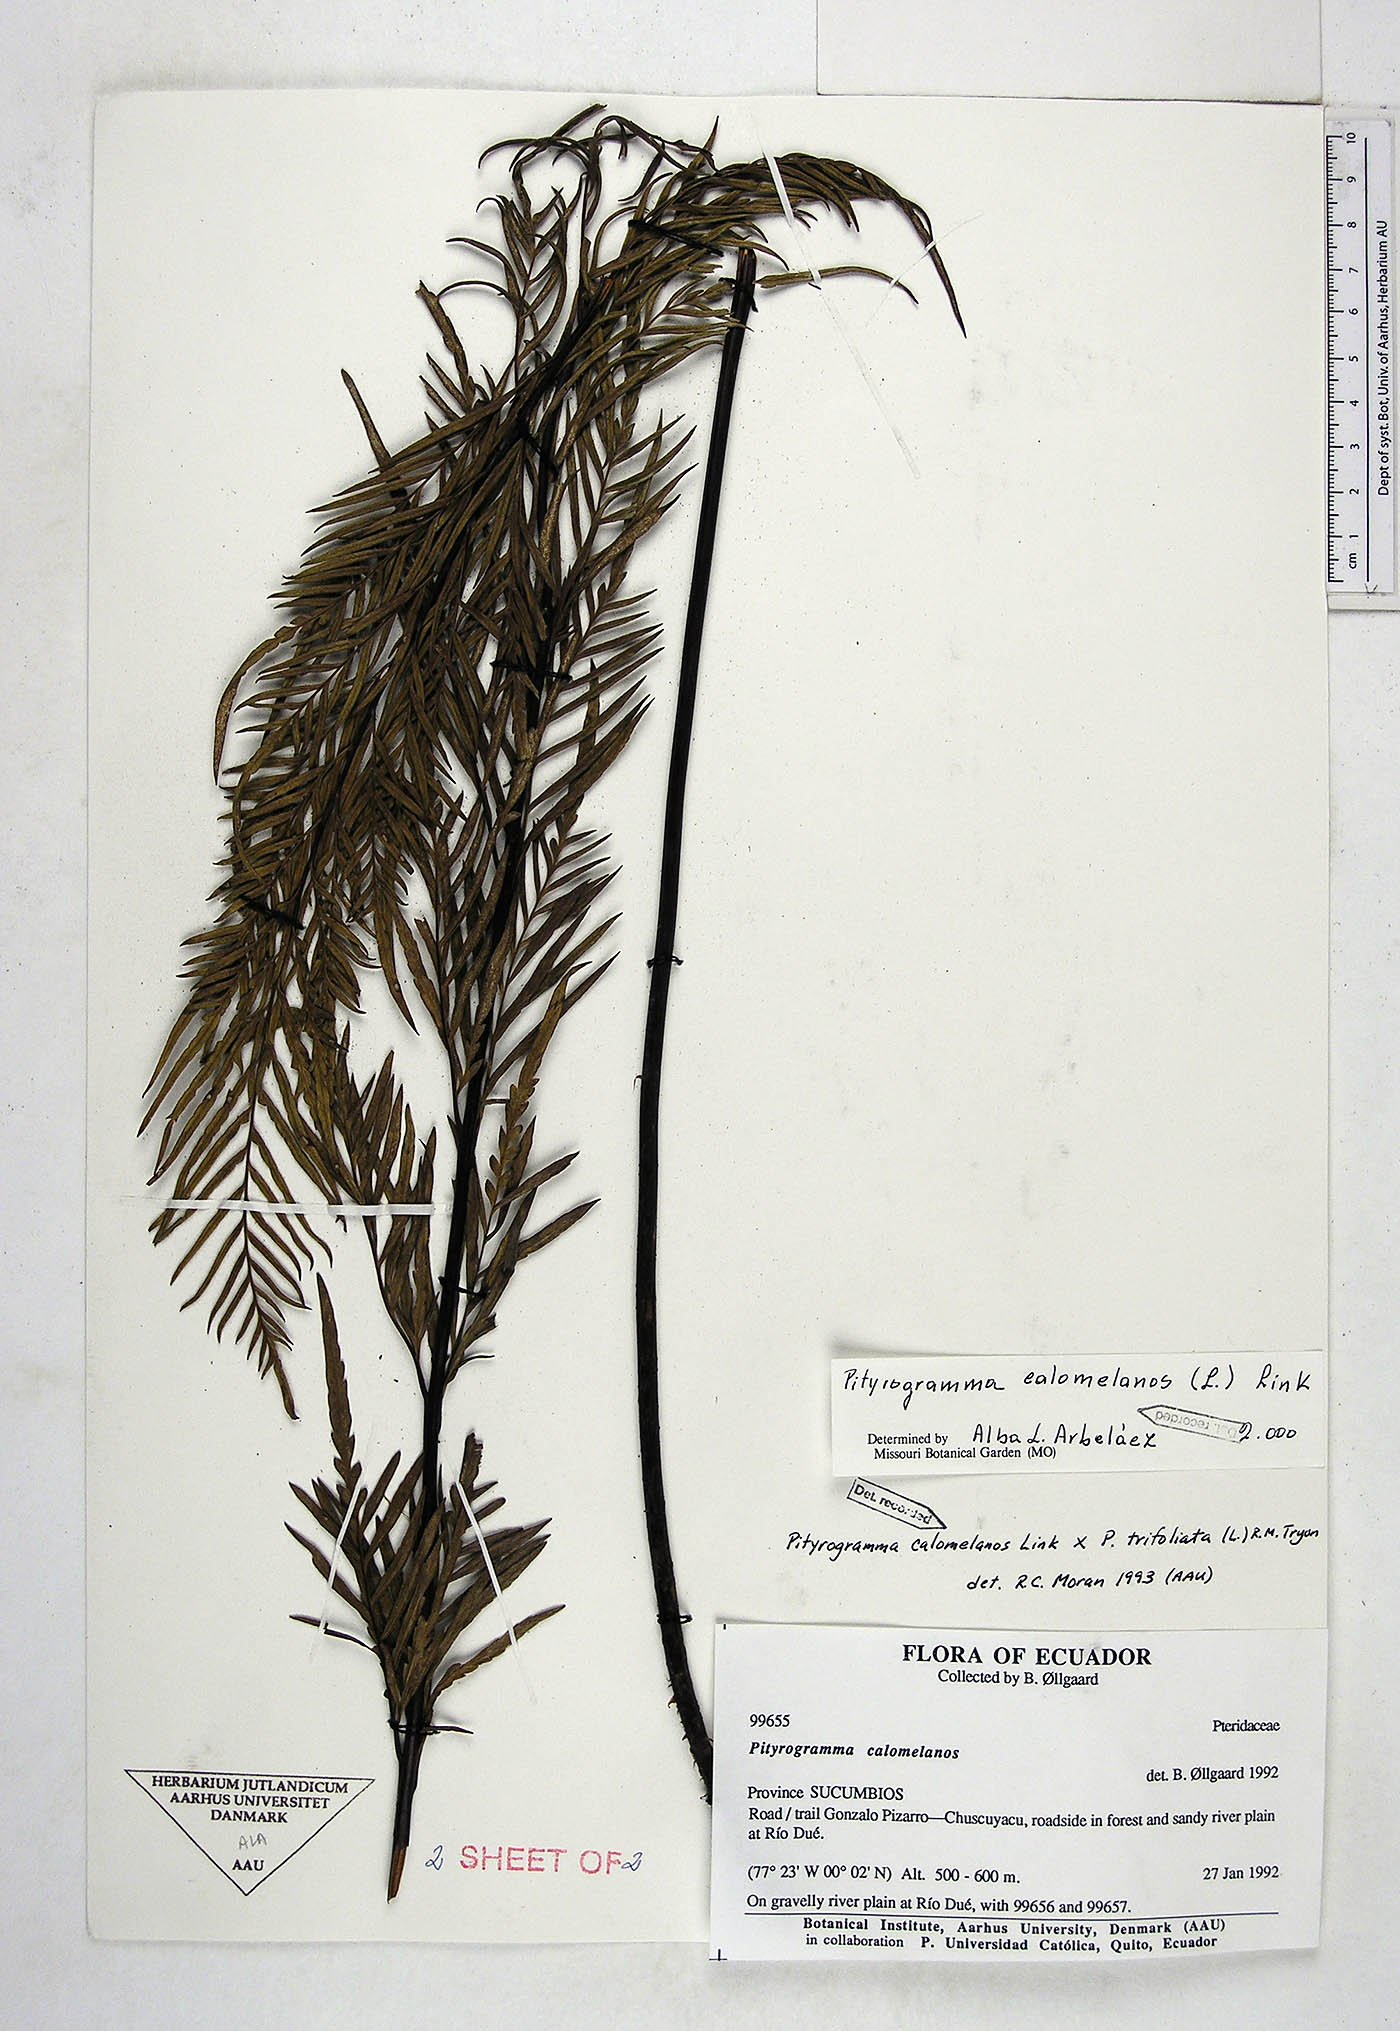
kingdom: Plantae
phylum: Tracheophyta
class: Polypodiopsida
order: Polypodiales
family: Pteridaceae
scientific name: Pteridaceae
